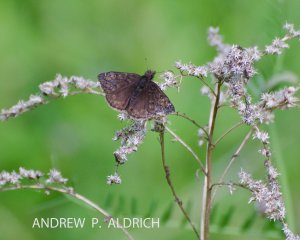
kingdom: Animalia
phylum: Arthropoda
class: Insecta
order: Lepidoptera
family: Hesperiidae
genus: Gesta
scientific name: Gesta
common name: Juvenal's Duskywing
